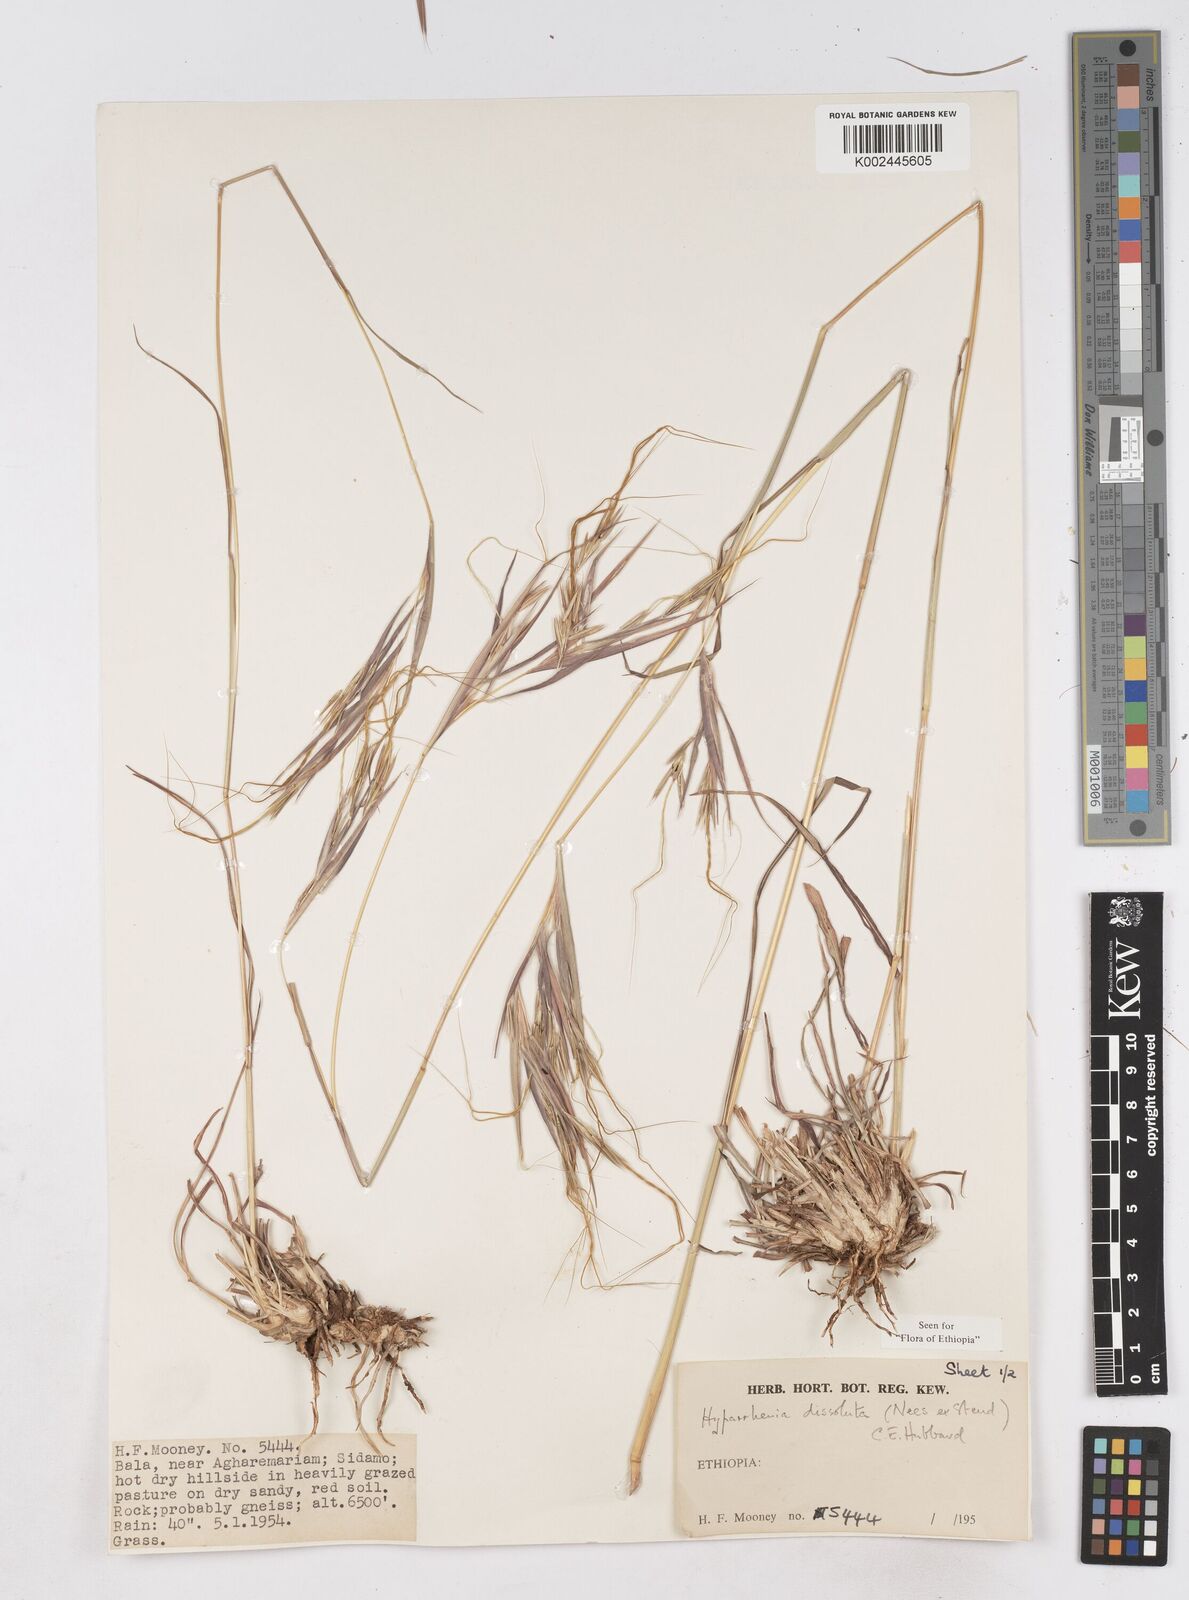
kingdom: Plantae
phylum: Tracheophyta
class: Liliopsida
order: Poales
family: Poaceae
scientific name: Poaceae
